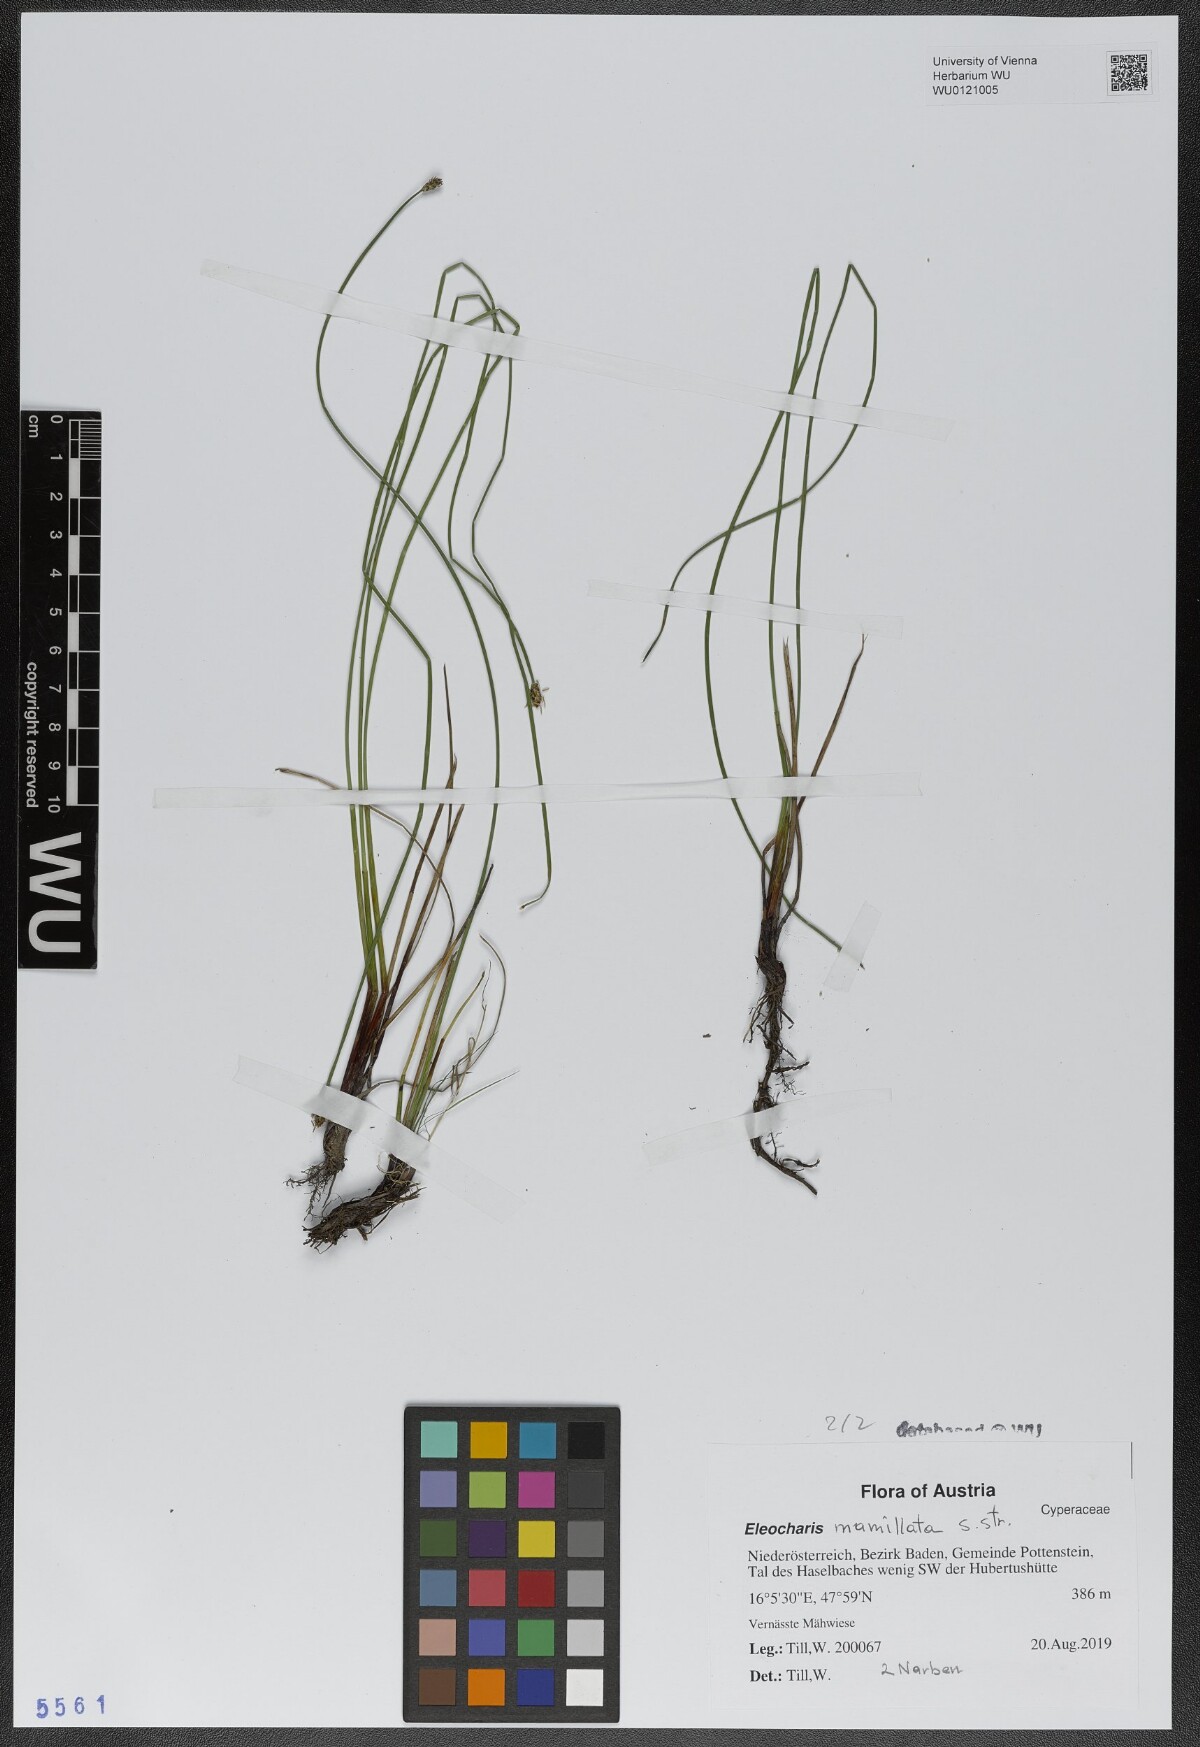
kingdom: Plantae
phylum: Tracheophyta
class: Liliopsida
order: Poales
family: Cyperaceae
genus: Eleocharis
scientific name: Eleocharis mamillata
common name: Northern spike-rush
